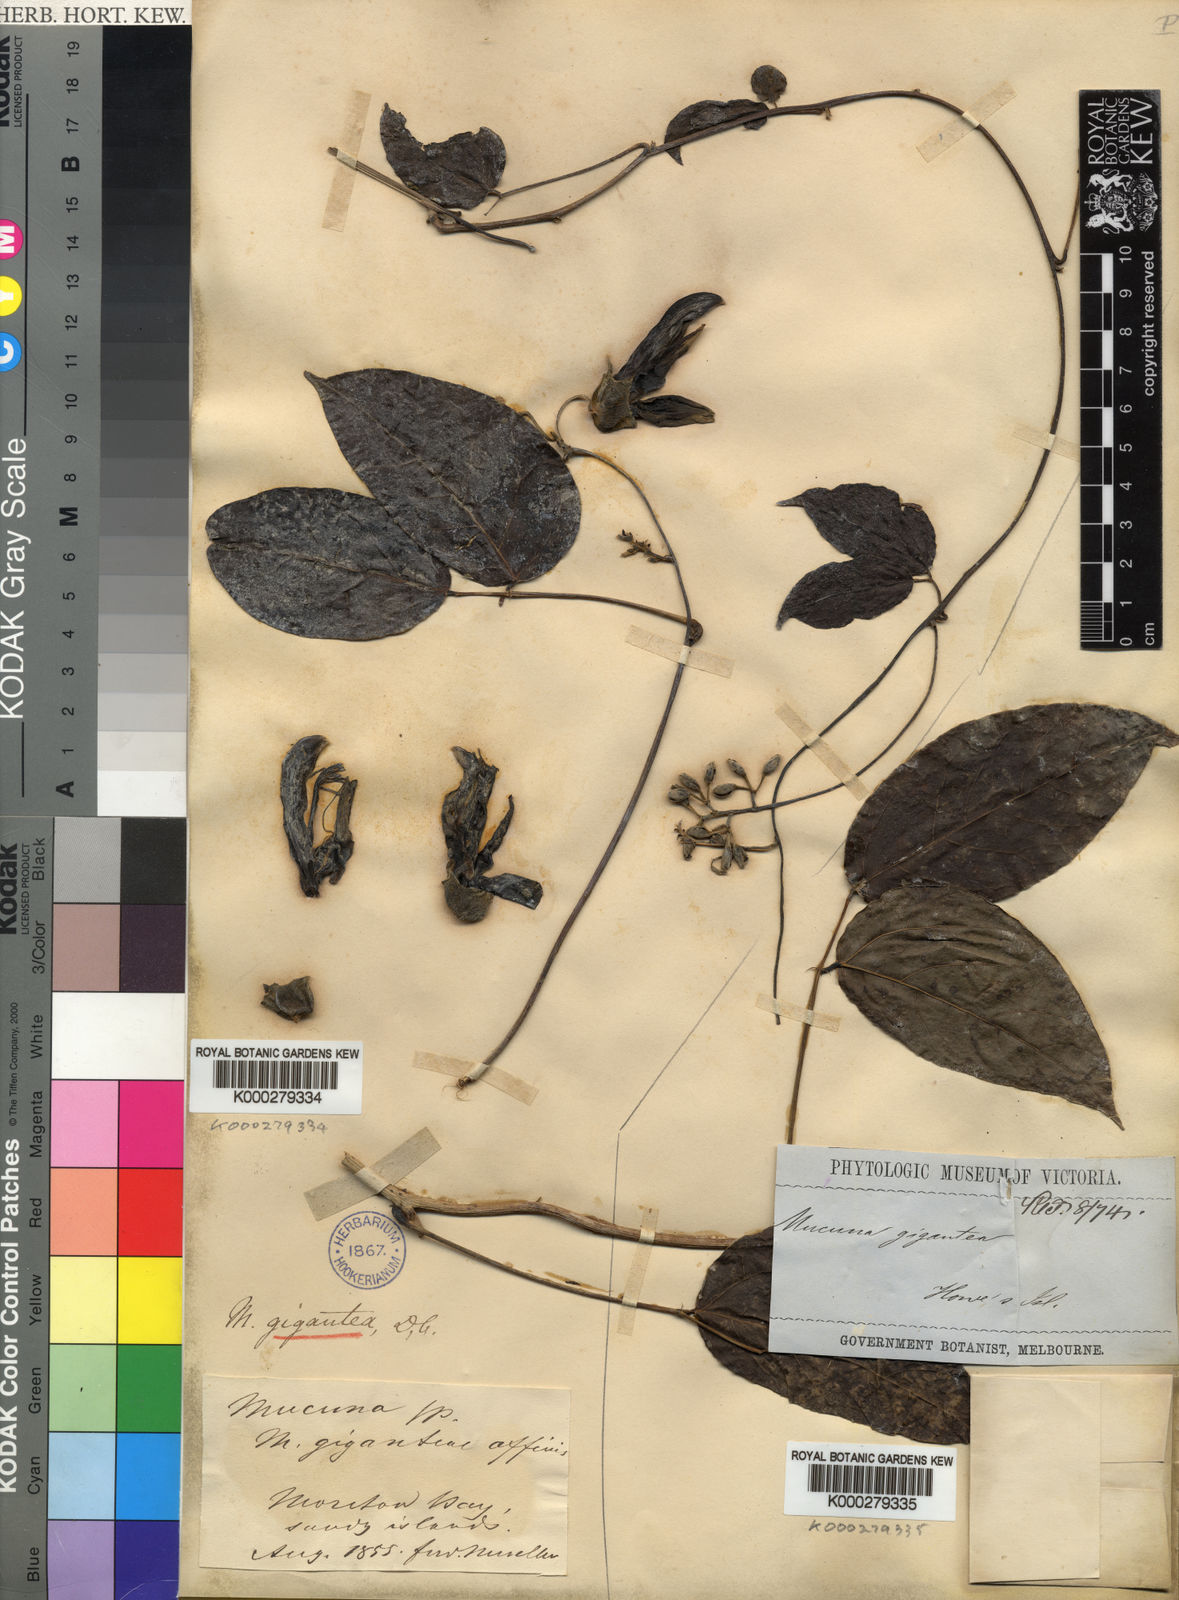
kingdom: Plantae
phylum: Tracheophyta
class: Magnoliopsida
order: Fabales
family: Fabaceae
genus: Mucuna
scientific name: Mucuna gigantea
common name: Black-bean
